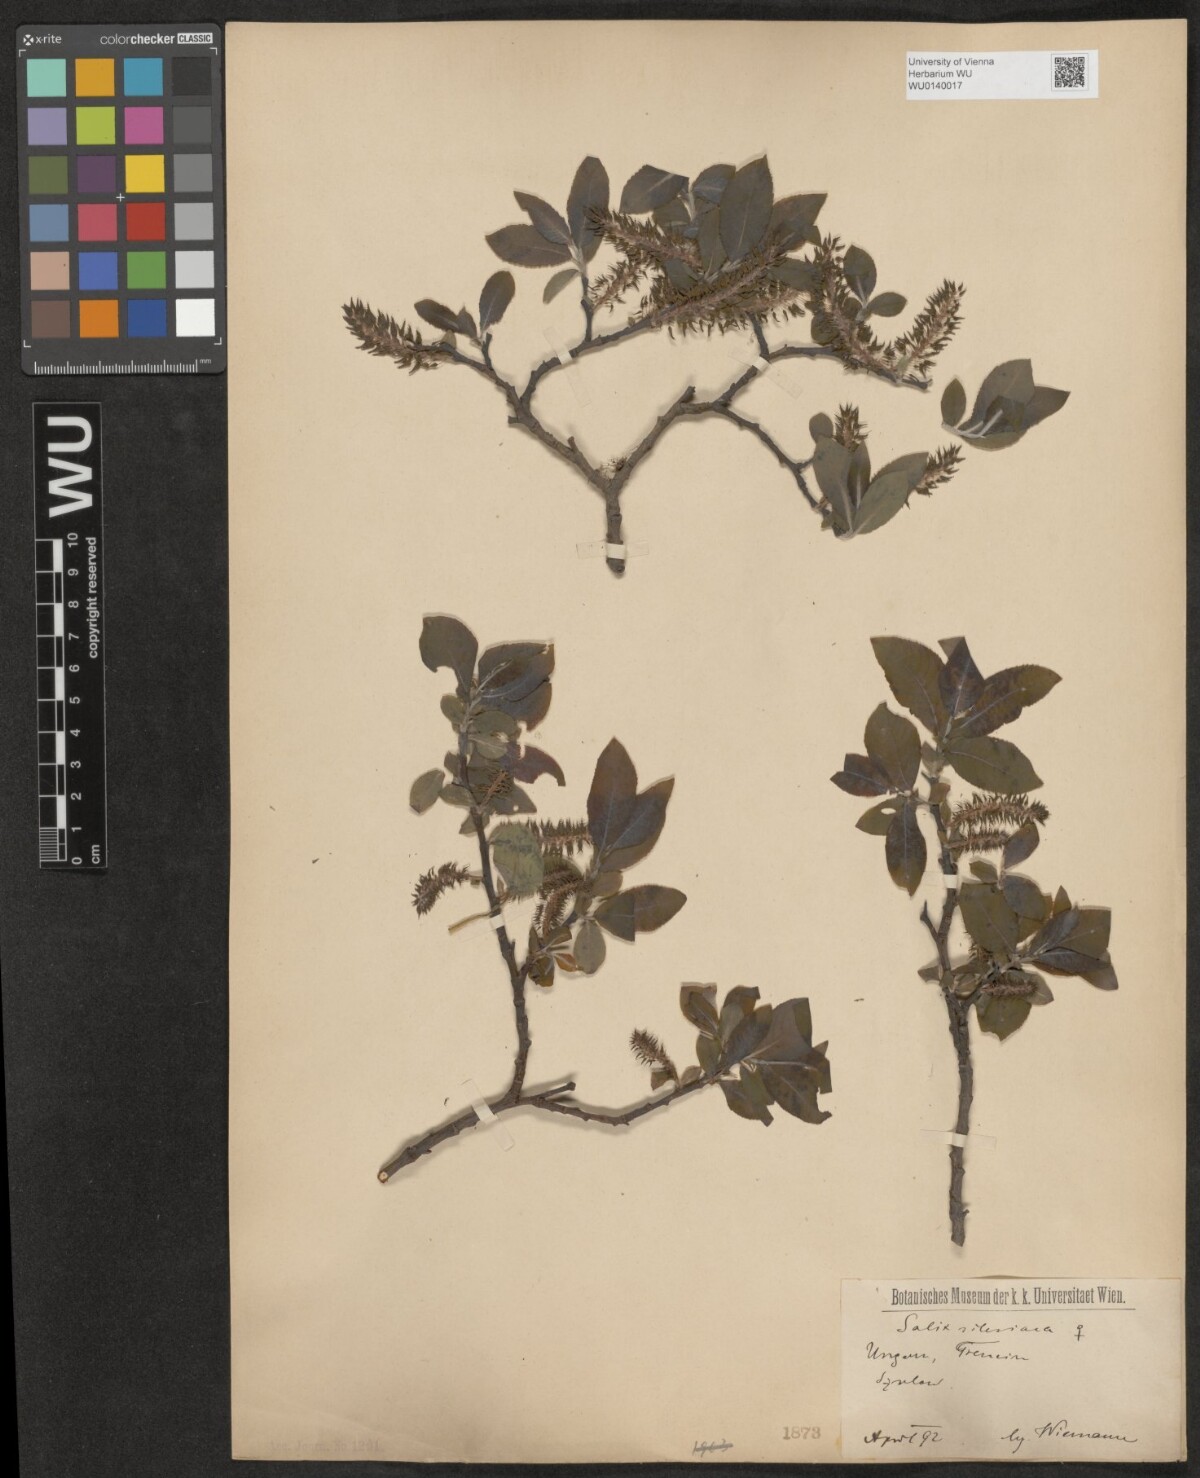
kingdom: Plantae
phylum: Tracheophyta
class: Magnoliopsida
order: Malpighiales
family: Salicaceae
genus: Salix
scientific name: Salix silesiaca
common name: Silesian willow
